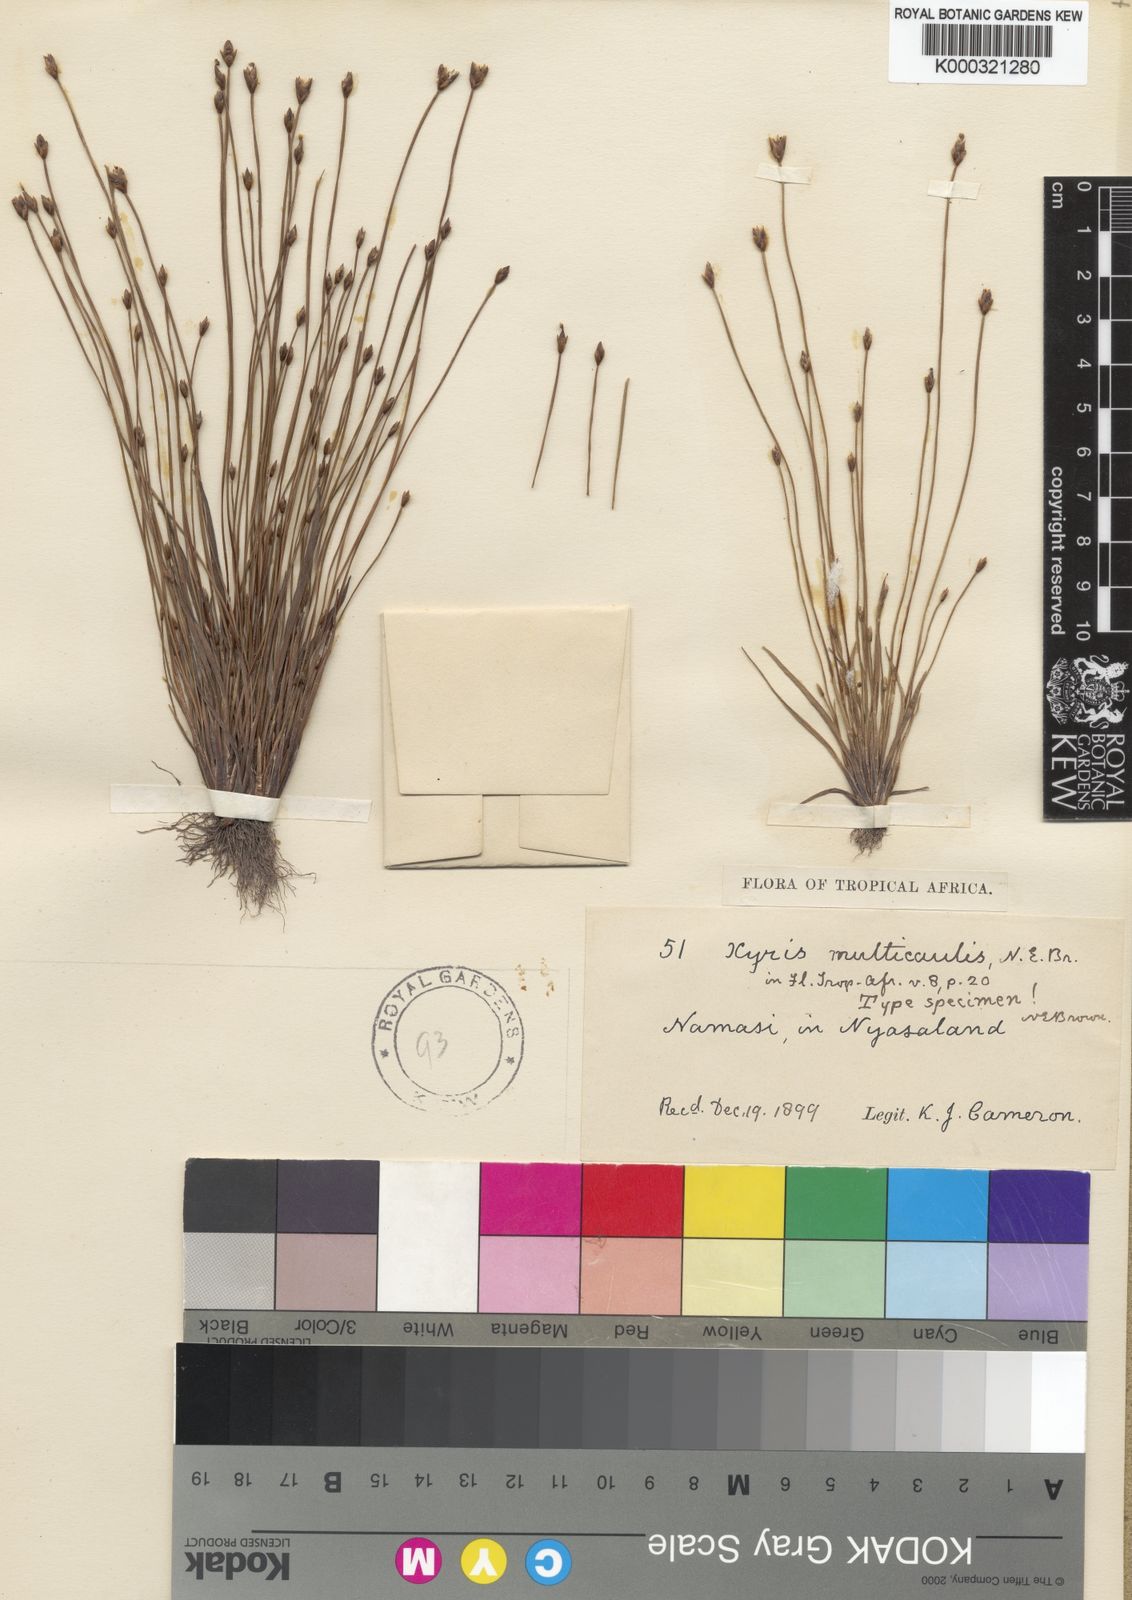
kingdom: Plantae
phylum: Tracheophyta
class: Liliopsida
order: Poales
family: Xyridaceae
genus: Xyris
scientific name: Xyris straminea
